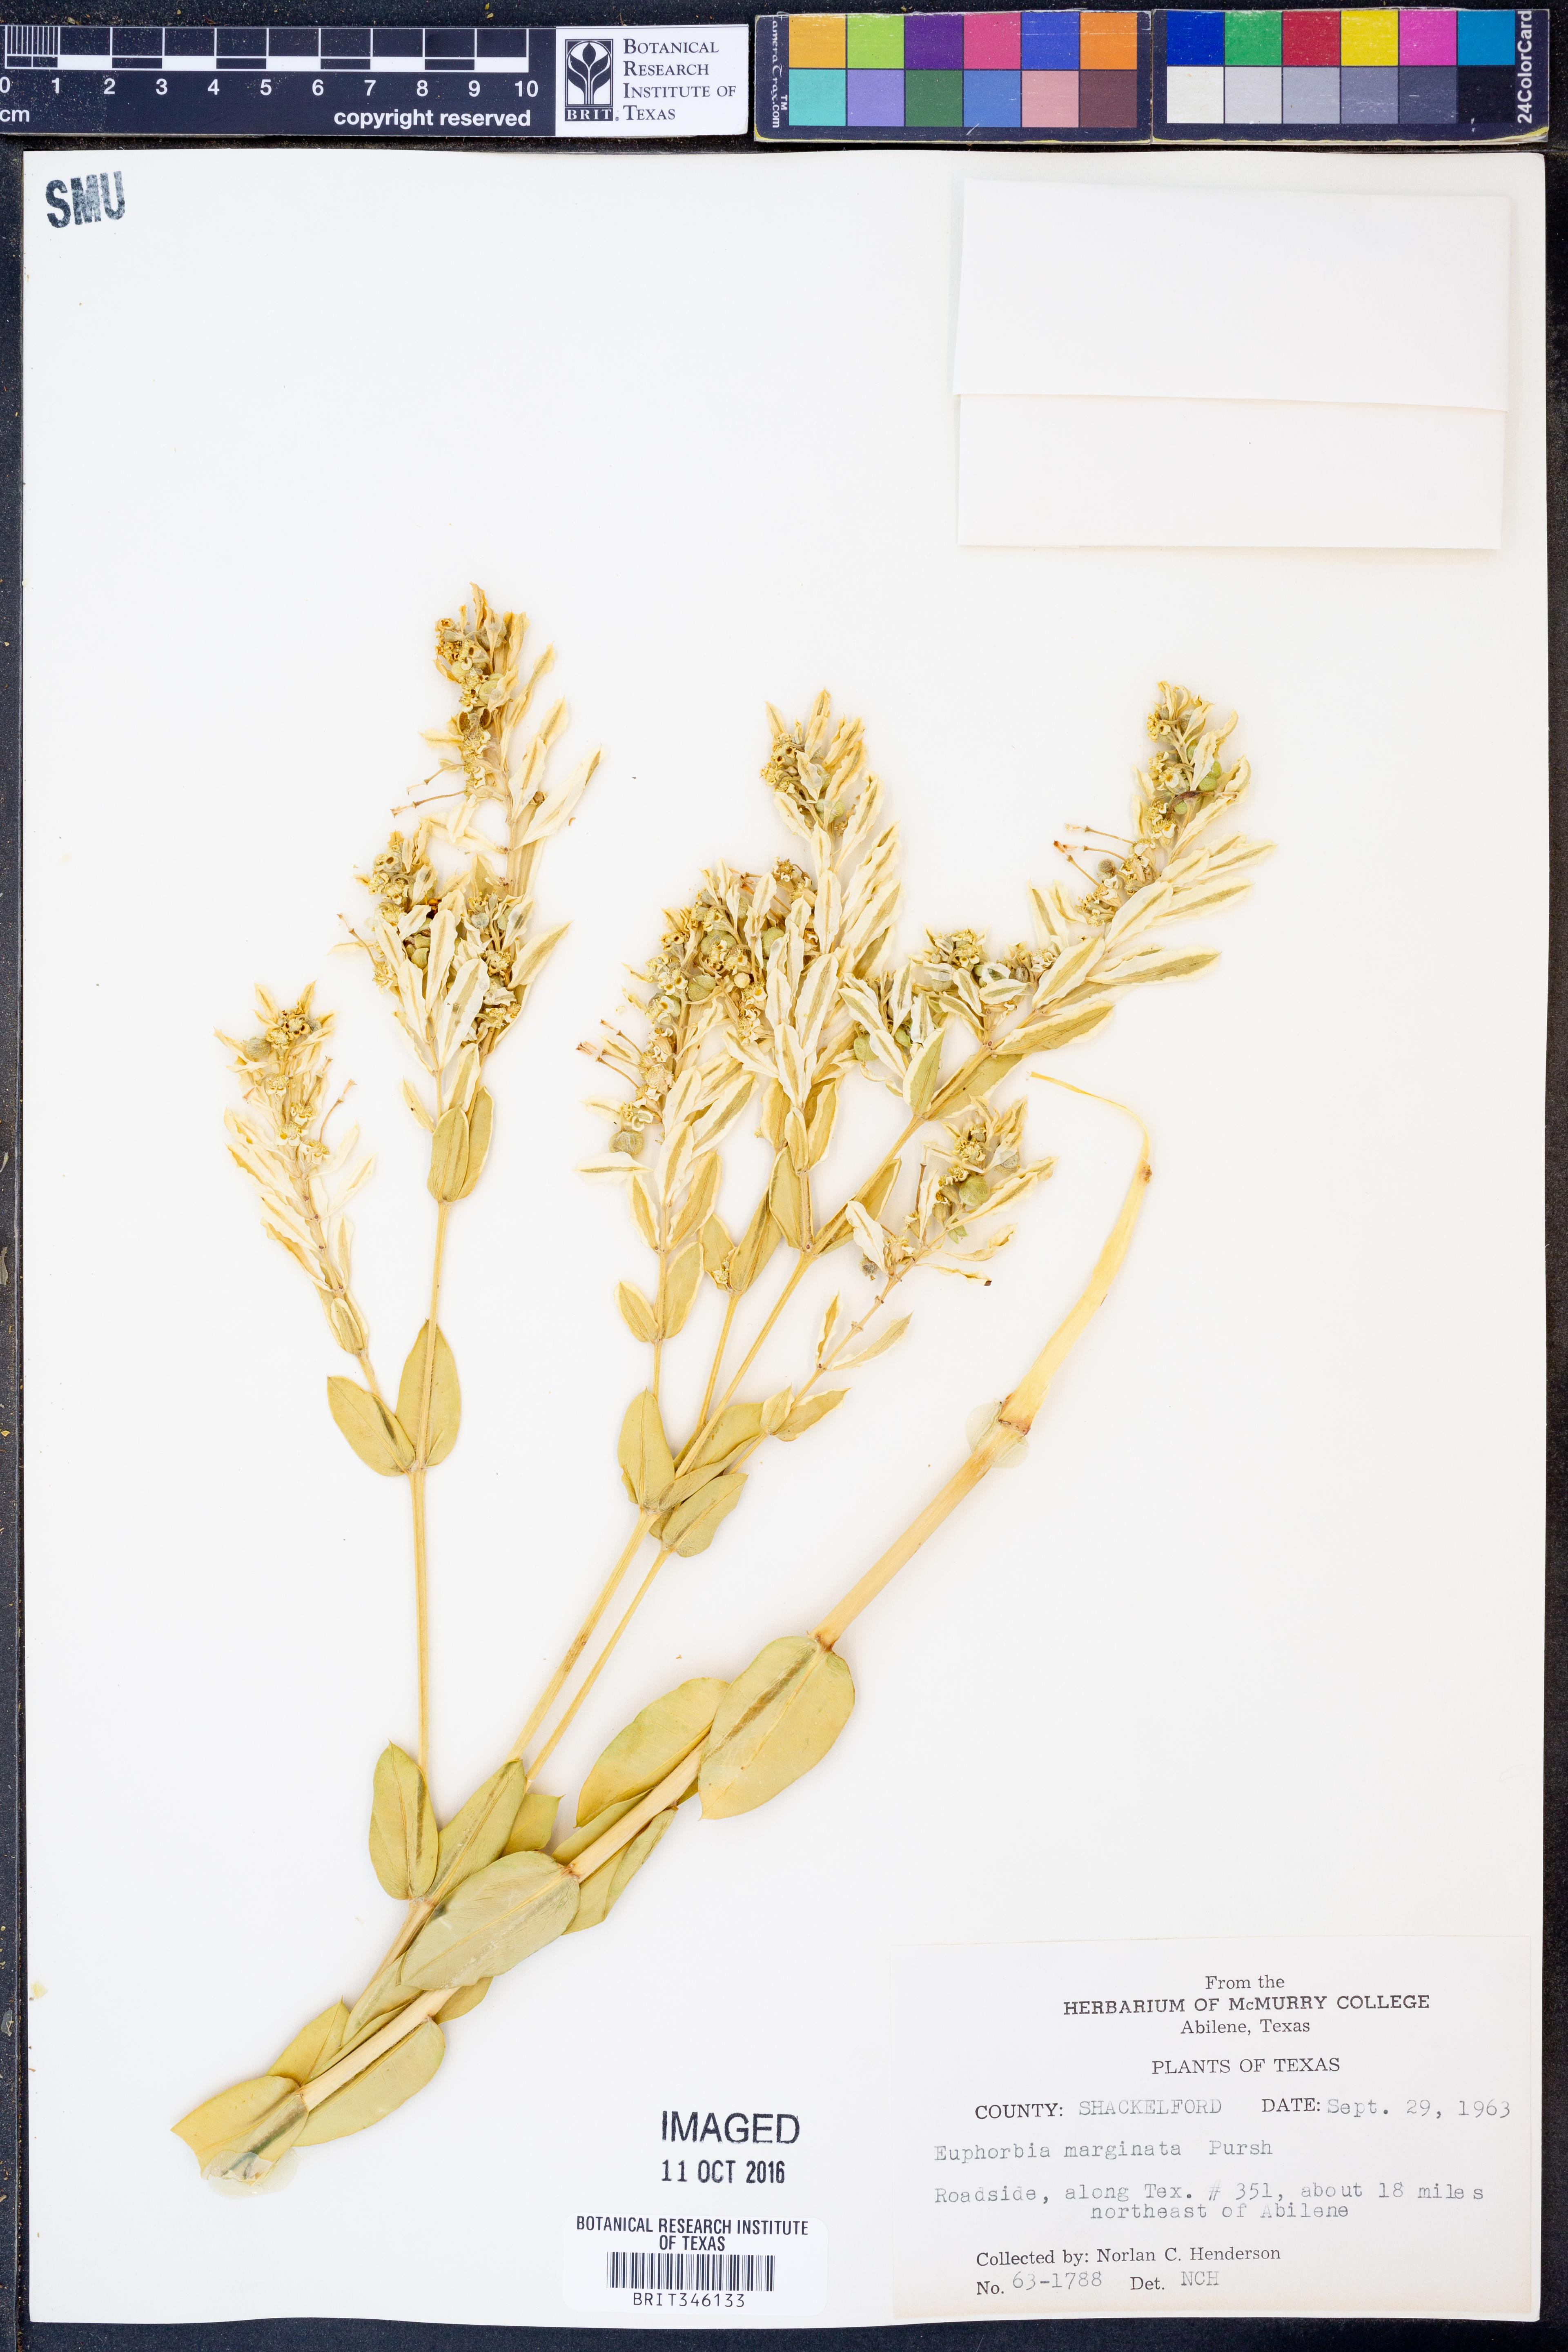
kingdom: Plantae
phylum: Tracheophyta
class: Magnoliopsida
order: Malpighiales
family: Euphorbiaceae
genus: Euphorbia
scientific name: Euphorbia marginata
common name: Ghostweed
